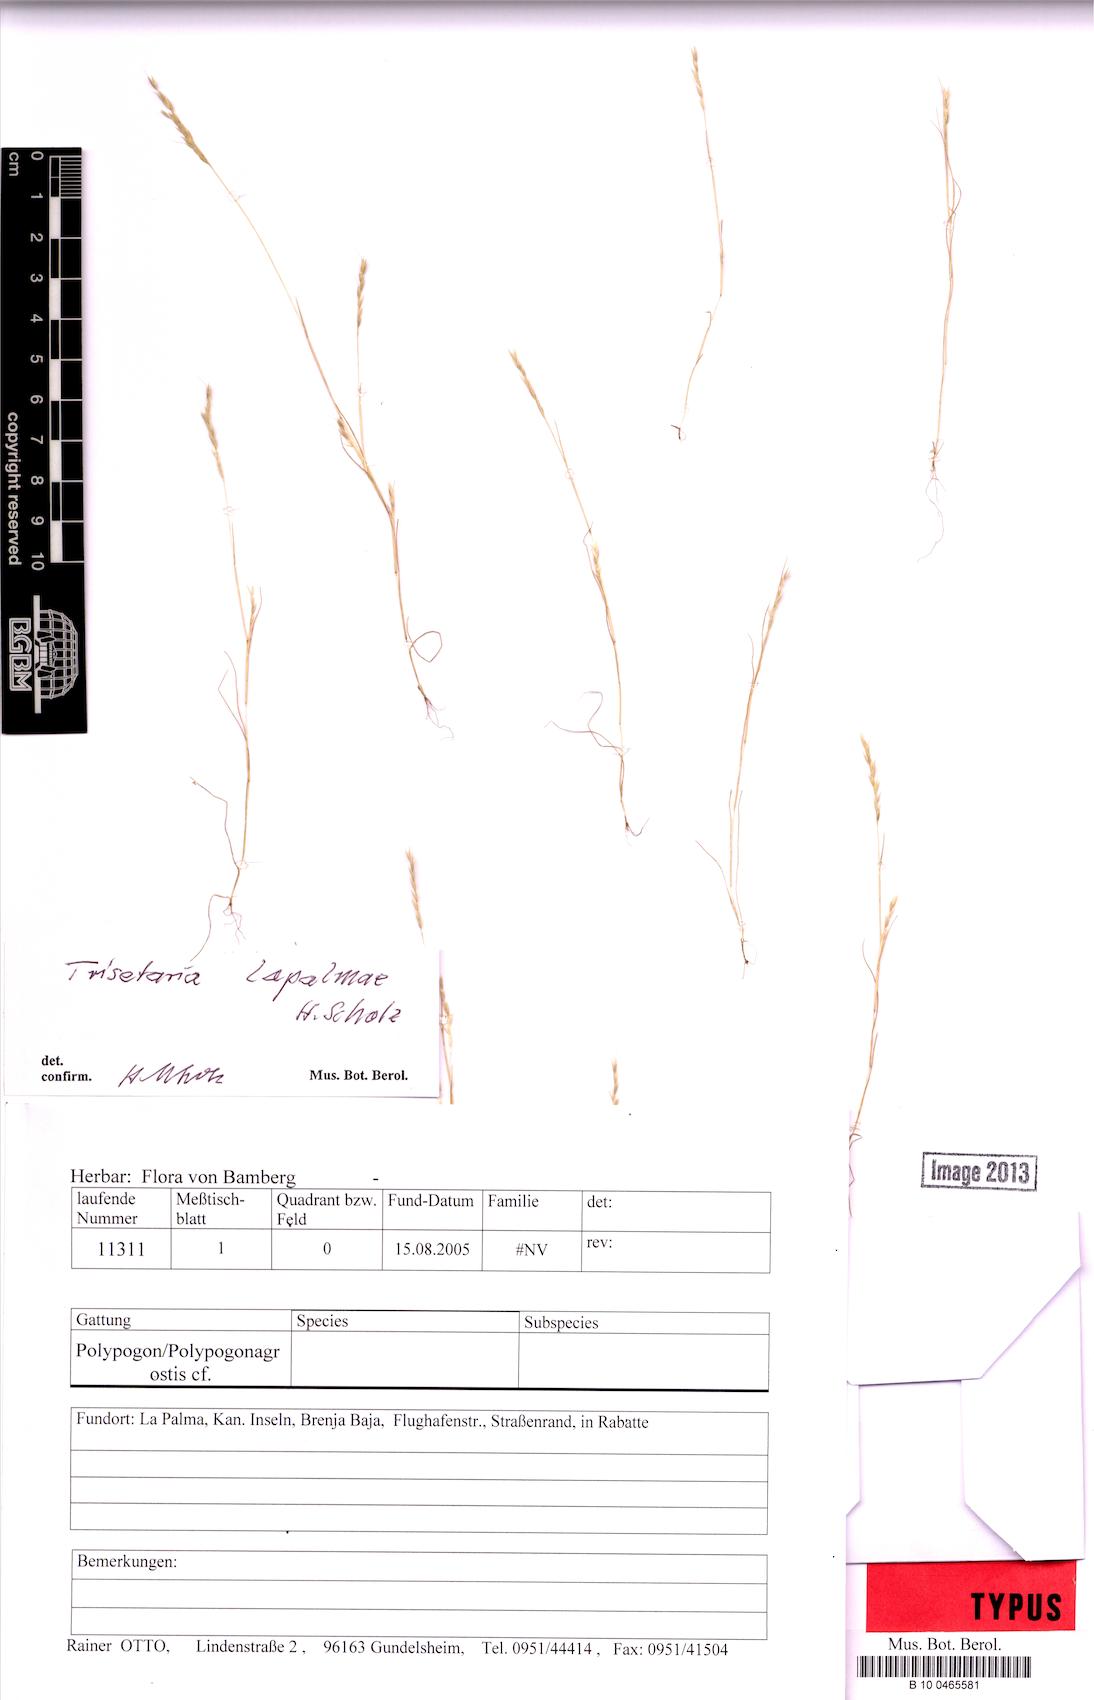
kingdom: Plantae
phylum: Tracheophyta
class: Liliopsida
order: Poales
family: Poaceae
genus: Trisetaria
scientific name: Trisetaria loeflingiana
